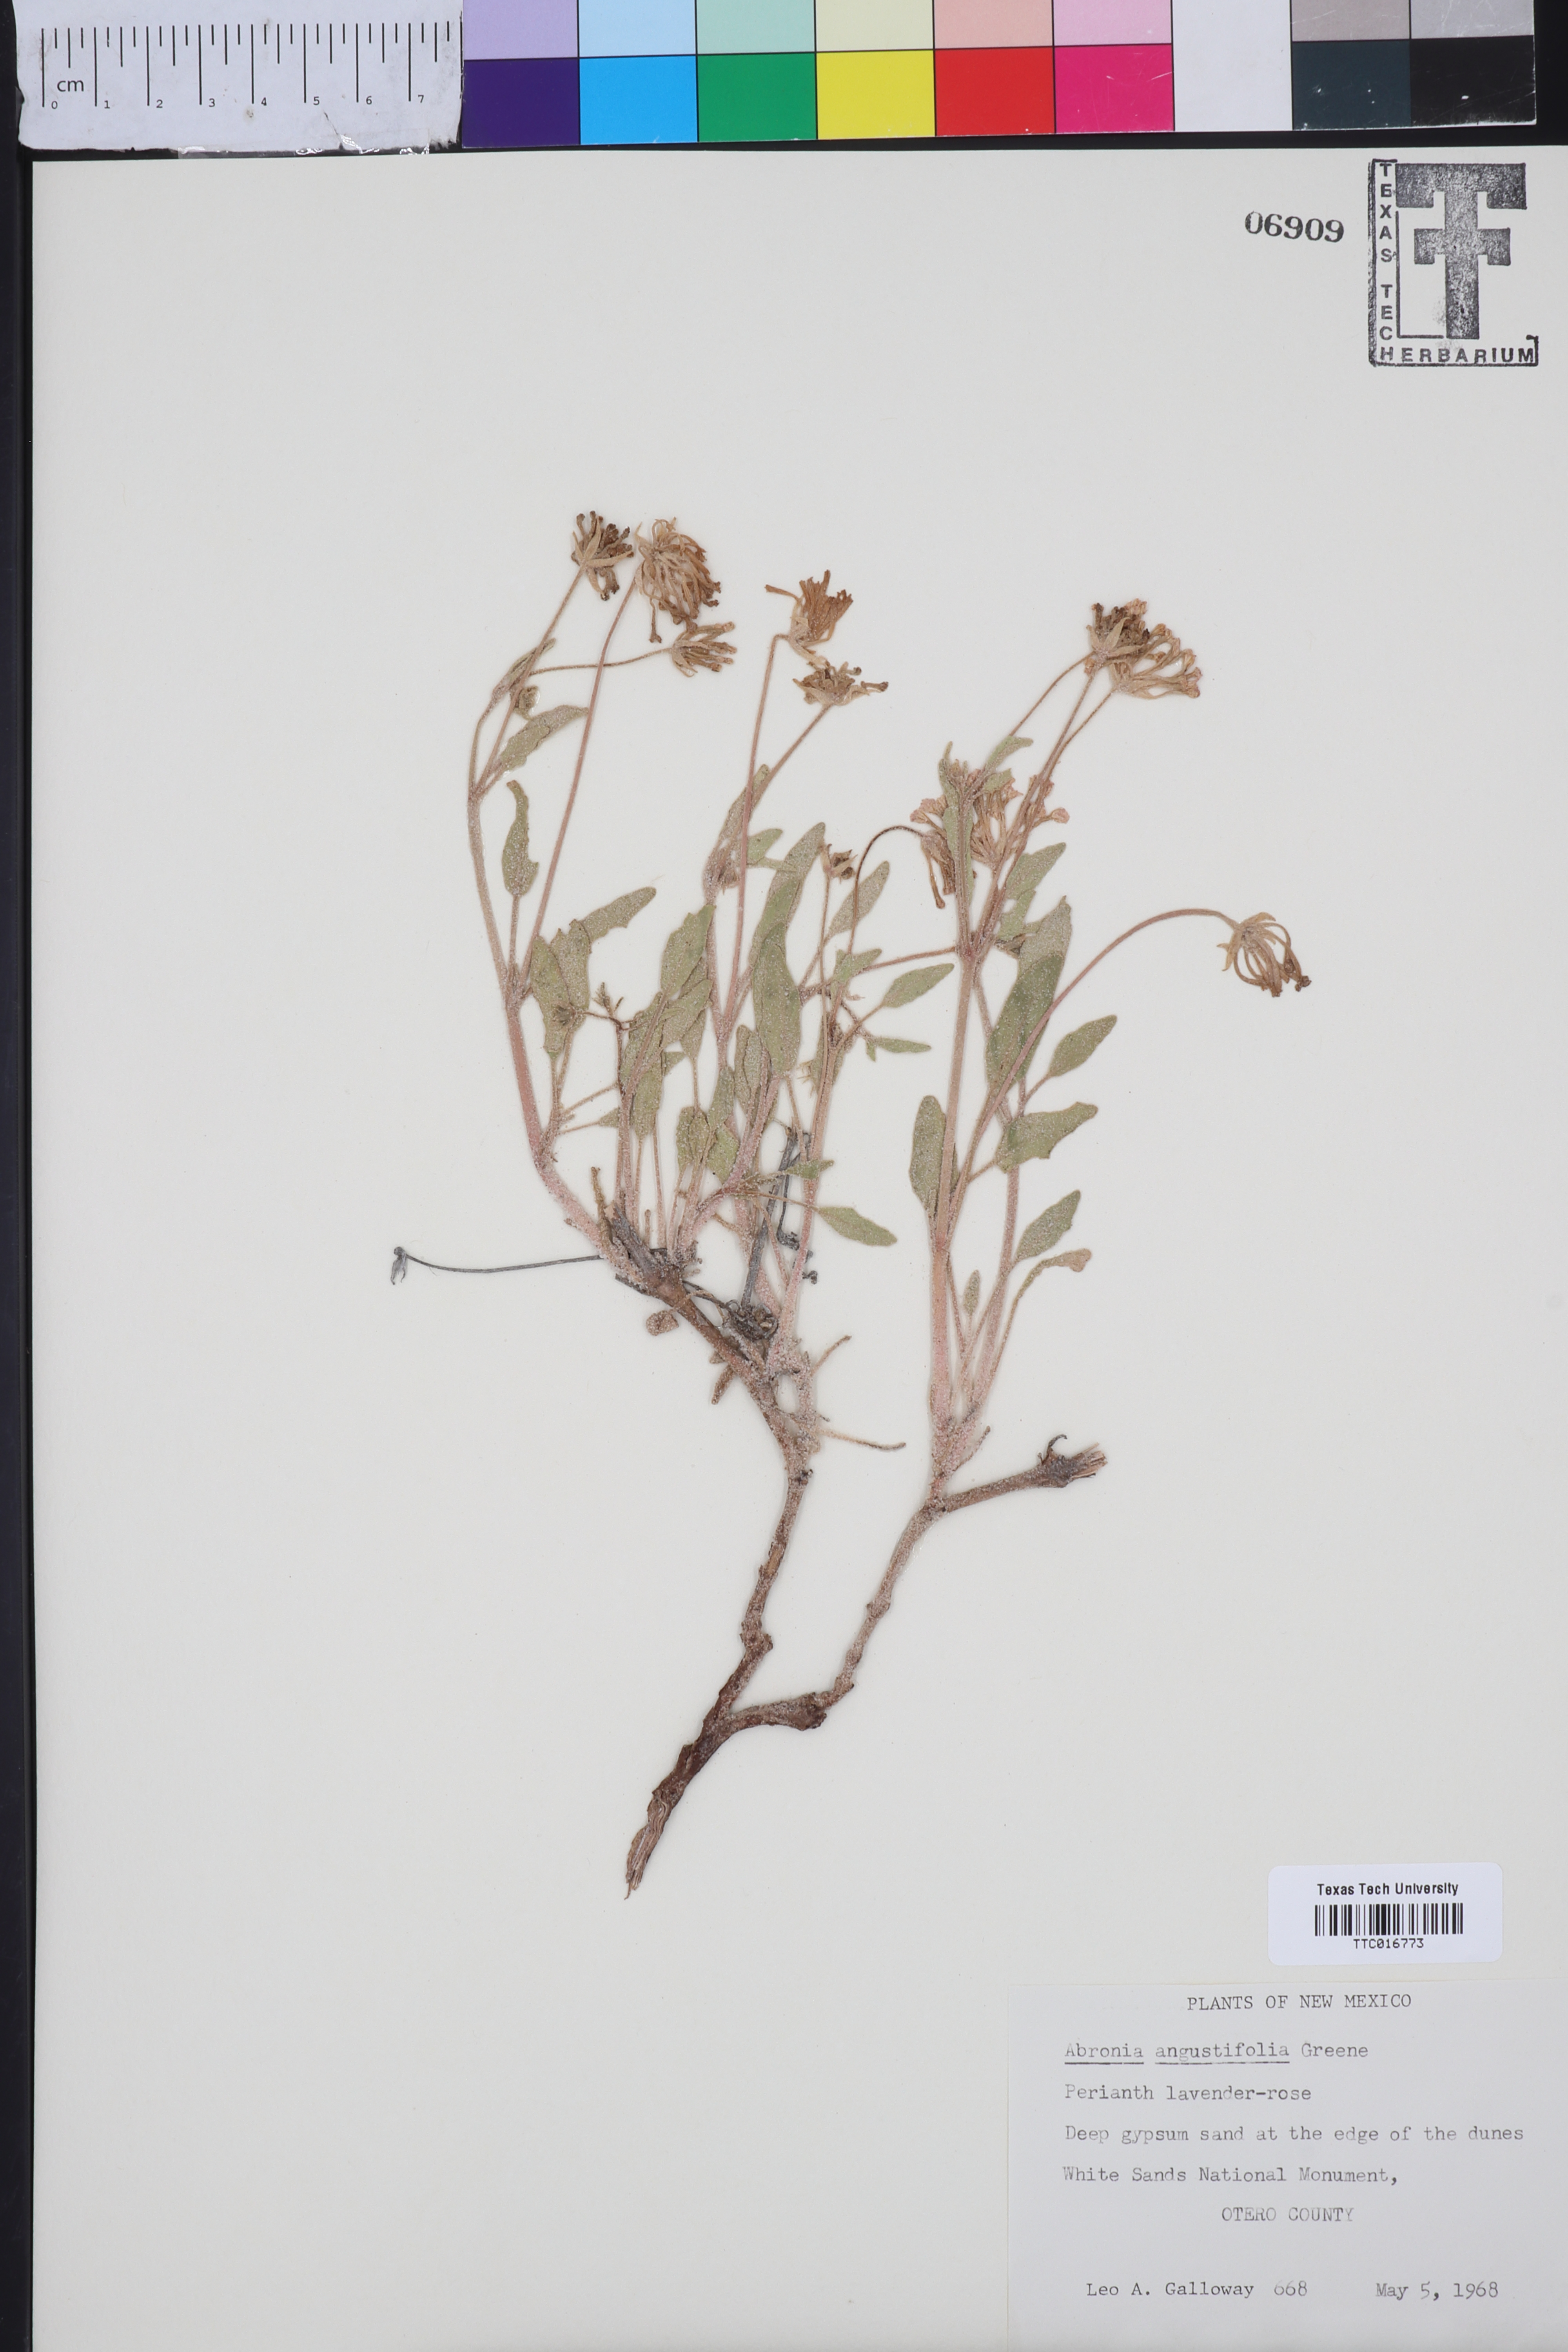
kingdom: Plantae
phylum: Tracheophyta
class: Magnoliopsida
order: Caryophyllales
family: Nyctaginaceae
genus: Abronia
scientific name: Abronia angustifolia
